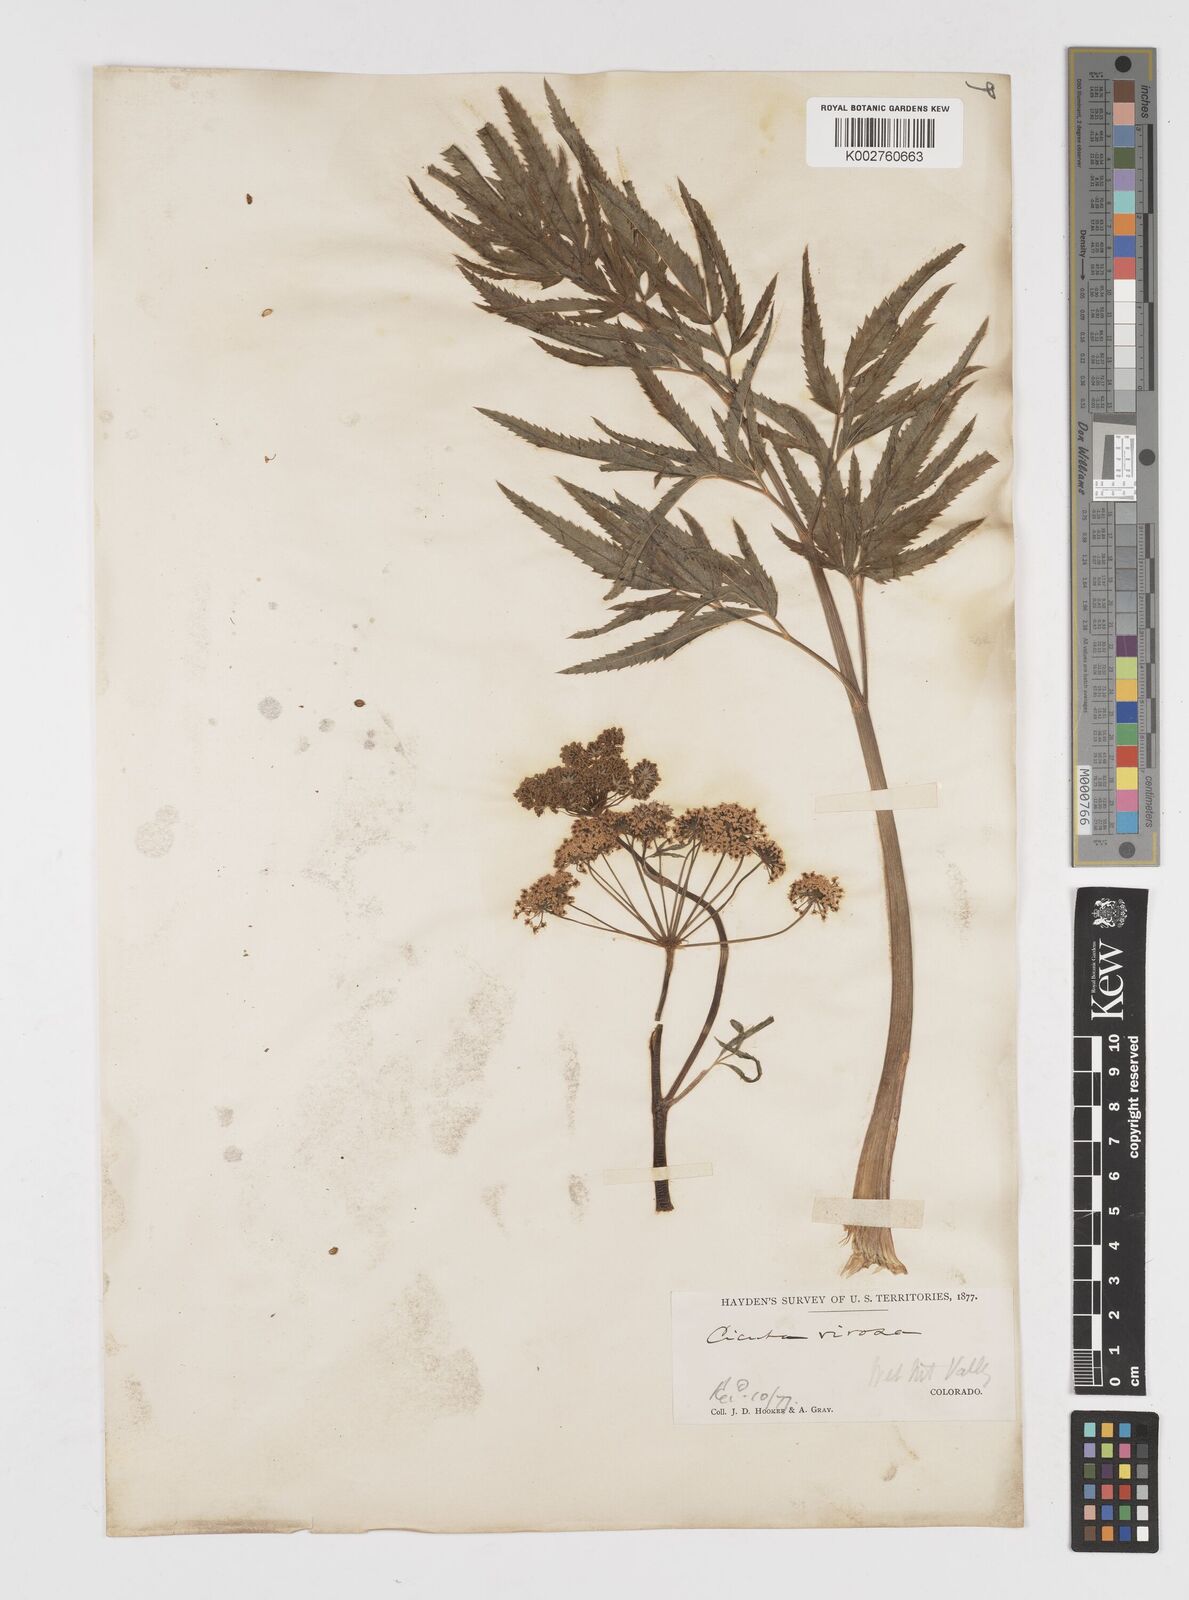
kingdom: Plantae
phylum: Tracheophyta
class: Magnoliopsida
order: Apiales
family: Apiaceae
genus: Cicuta
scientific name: Cicuta douglasii
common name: Western water-hemlock
